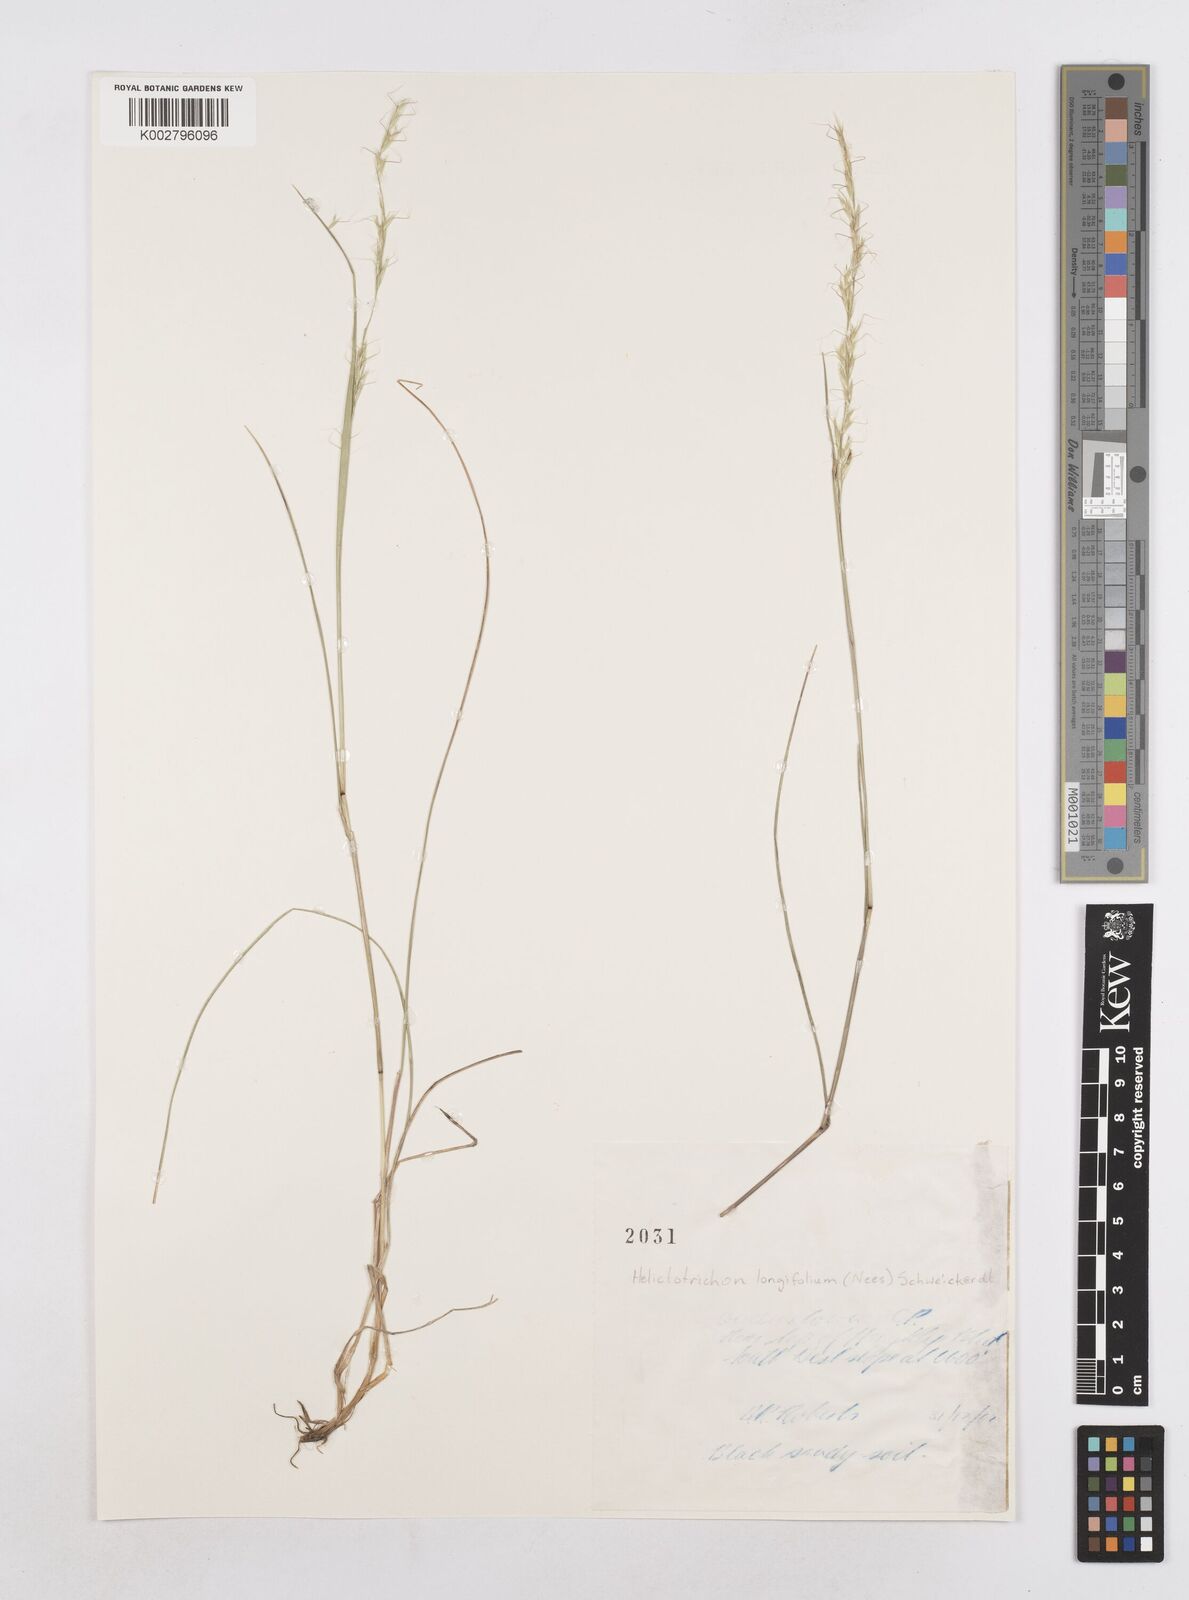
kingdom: Plantae
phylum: Tracheophyta
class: Liliopsida
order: Poales
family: Poaceae
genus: Trisetopsis
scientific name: Trisetopsis longifolia
